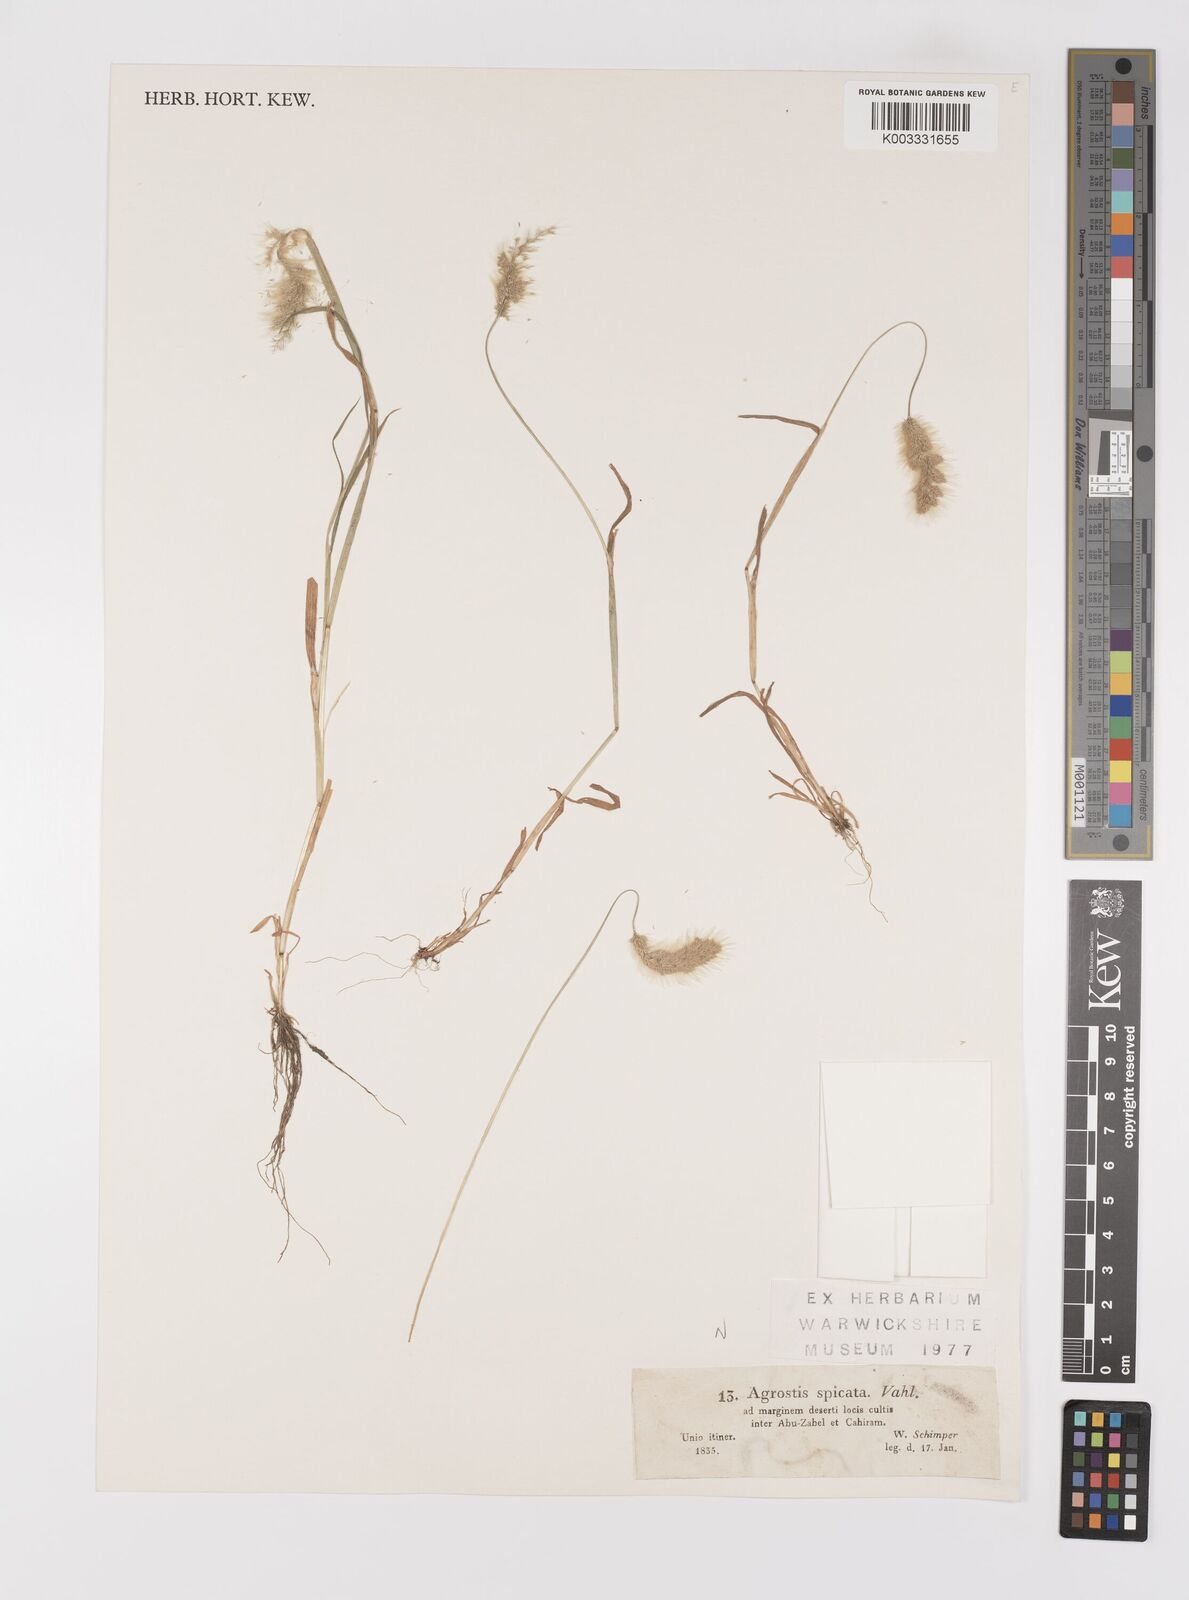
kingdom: Plantae
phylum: Tracheophyta
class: Liliopsida
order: Poales
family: Poaceae
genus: Polypogon
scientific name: Polypogon monspeliensis
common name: Annual rabbitsfoot grass
